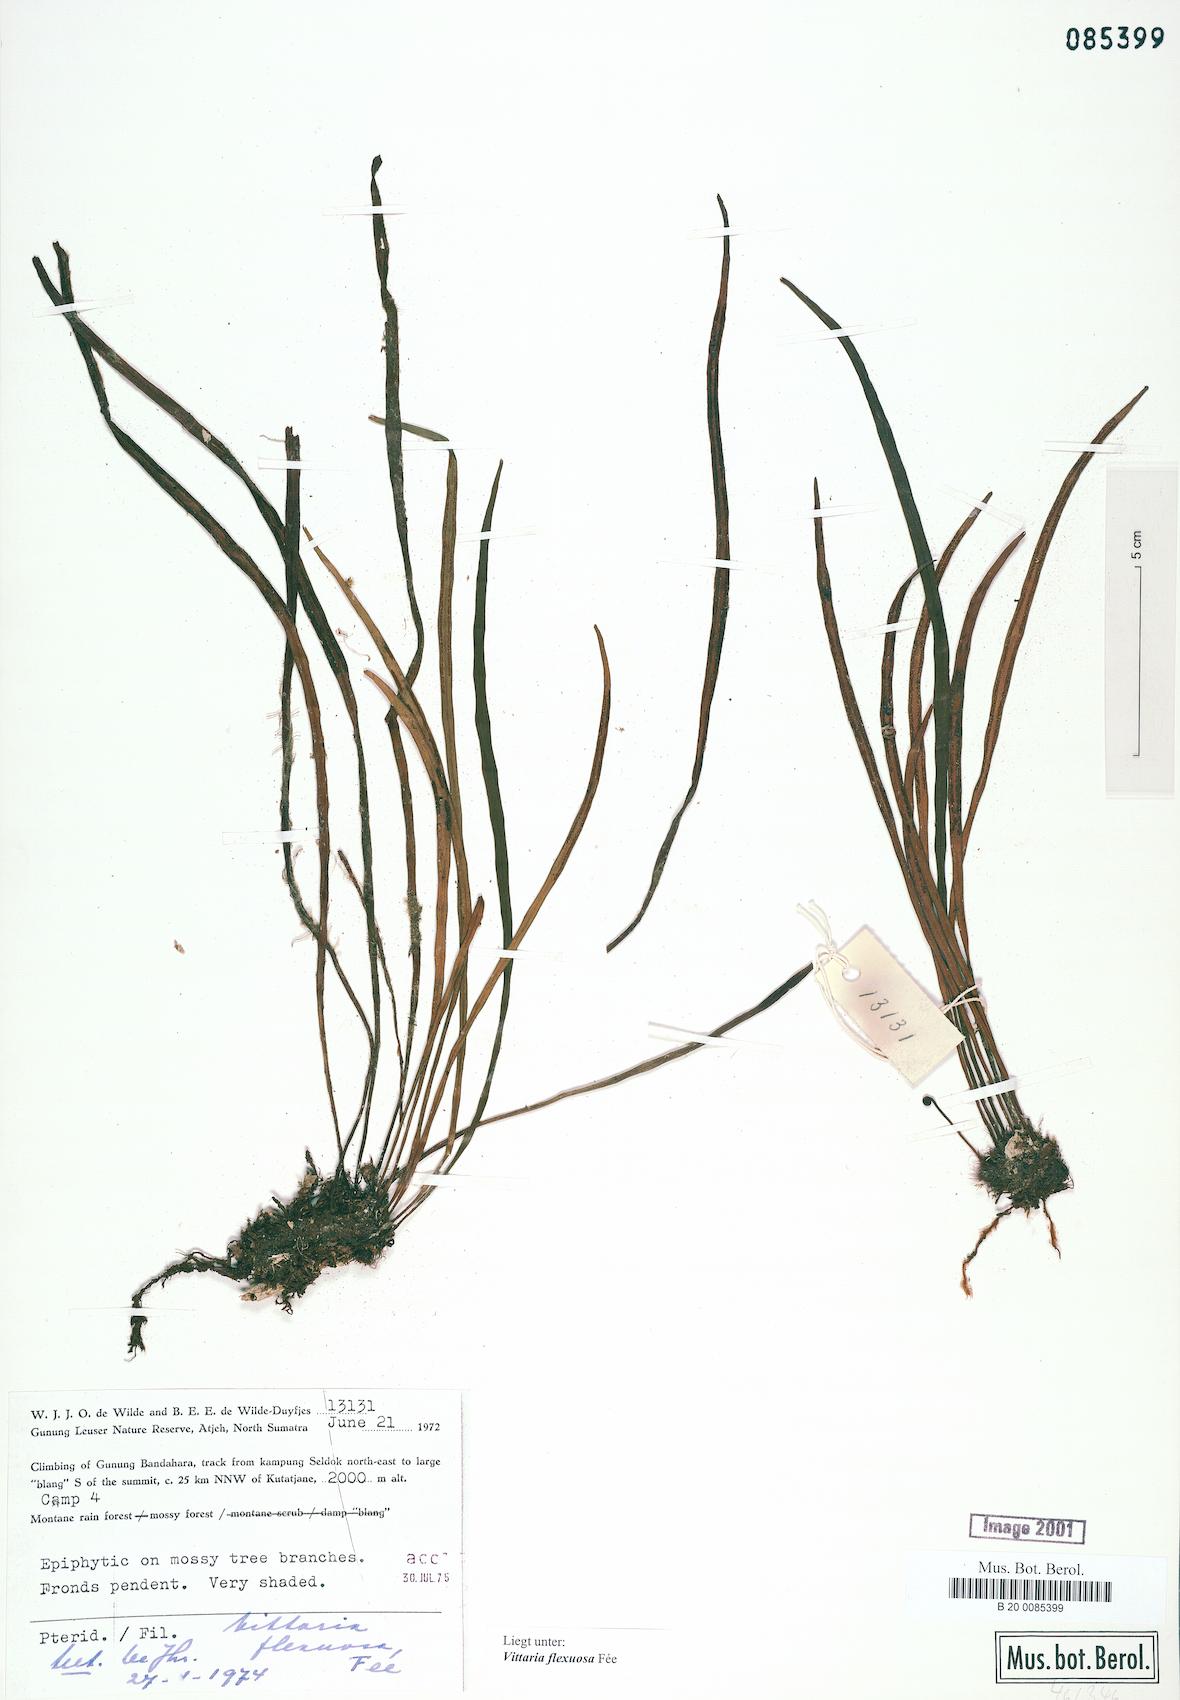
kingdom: Plantae
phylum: Tracheophyta
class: Polypodiopsida
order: Polypodiales
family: Pteridaceae
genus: Haplopteris
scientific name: Haplopteris flexuosa
